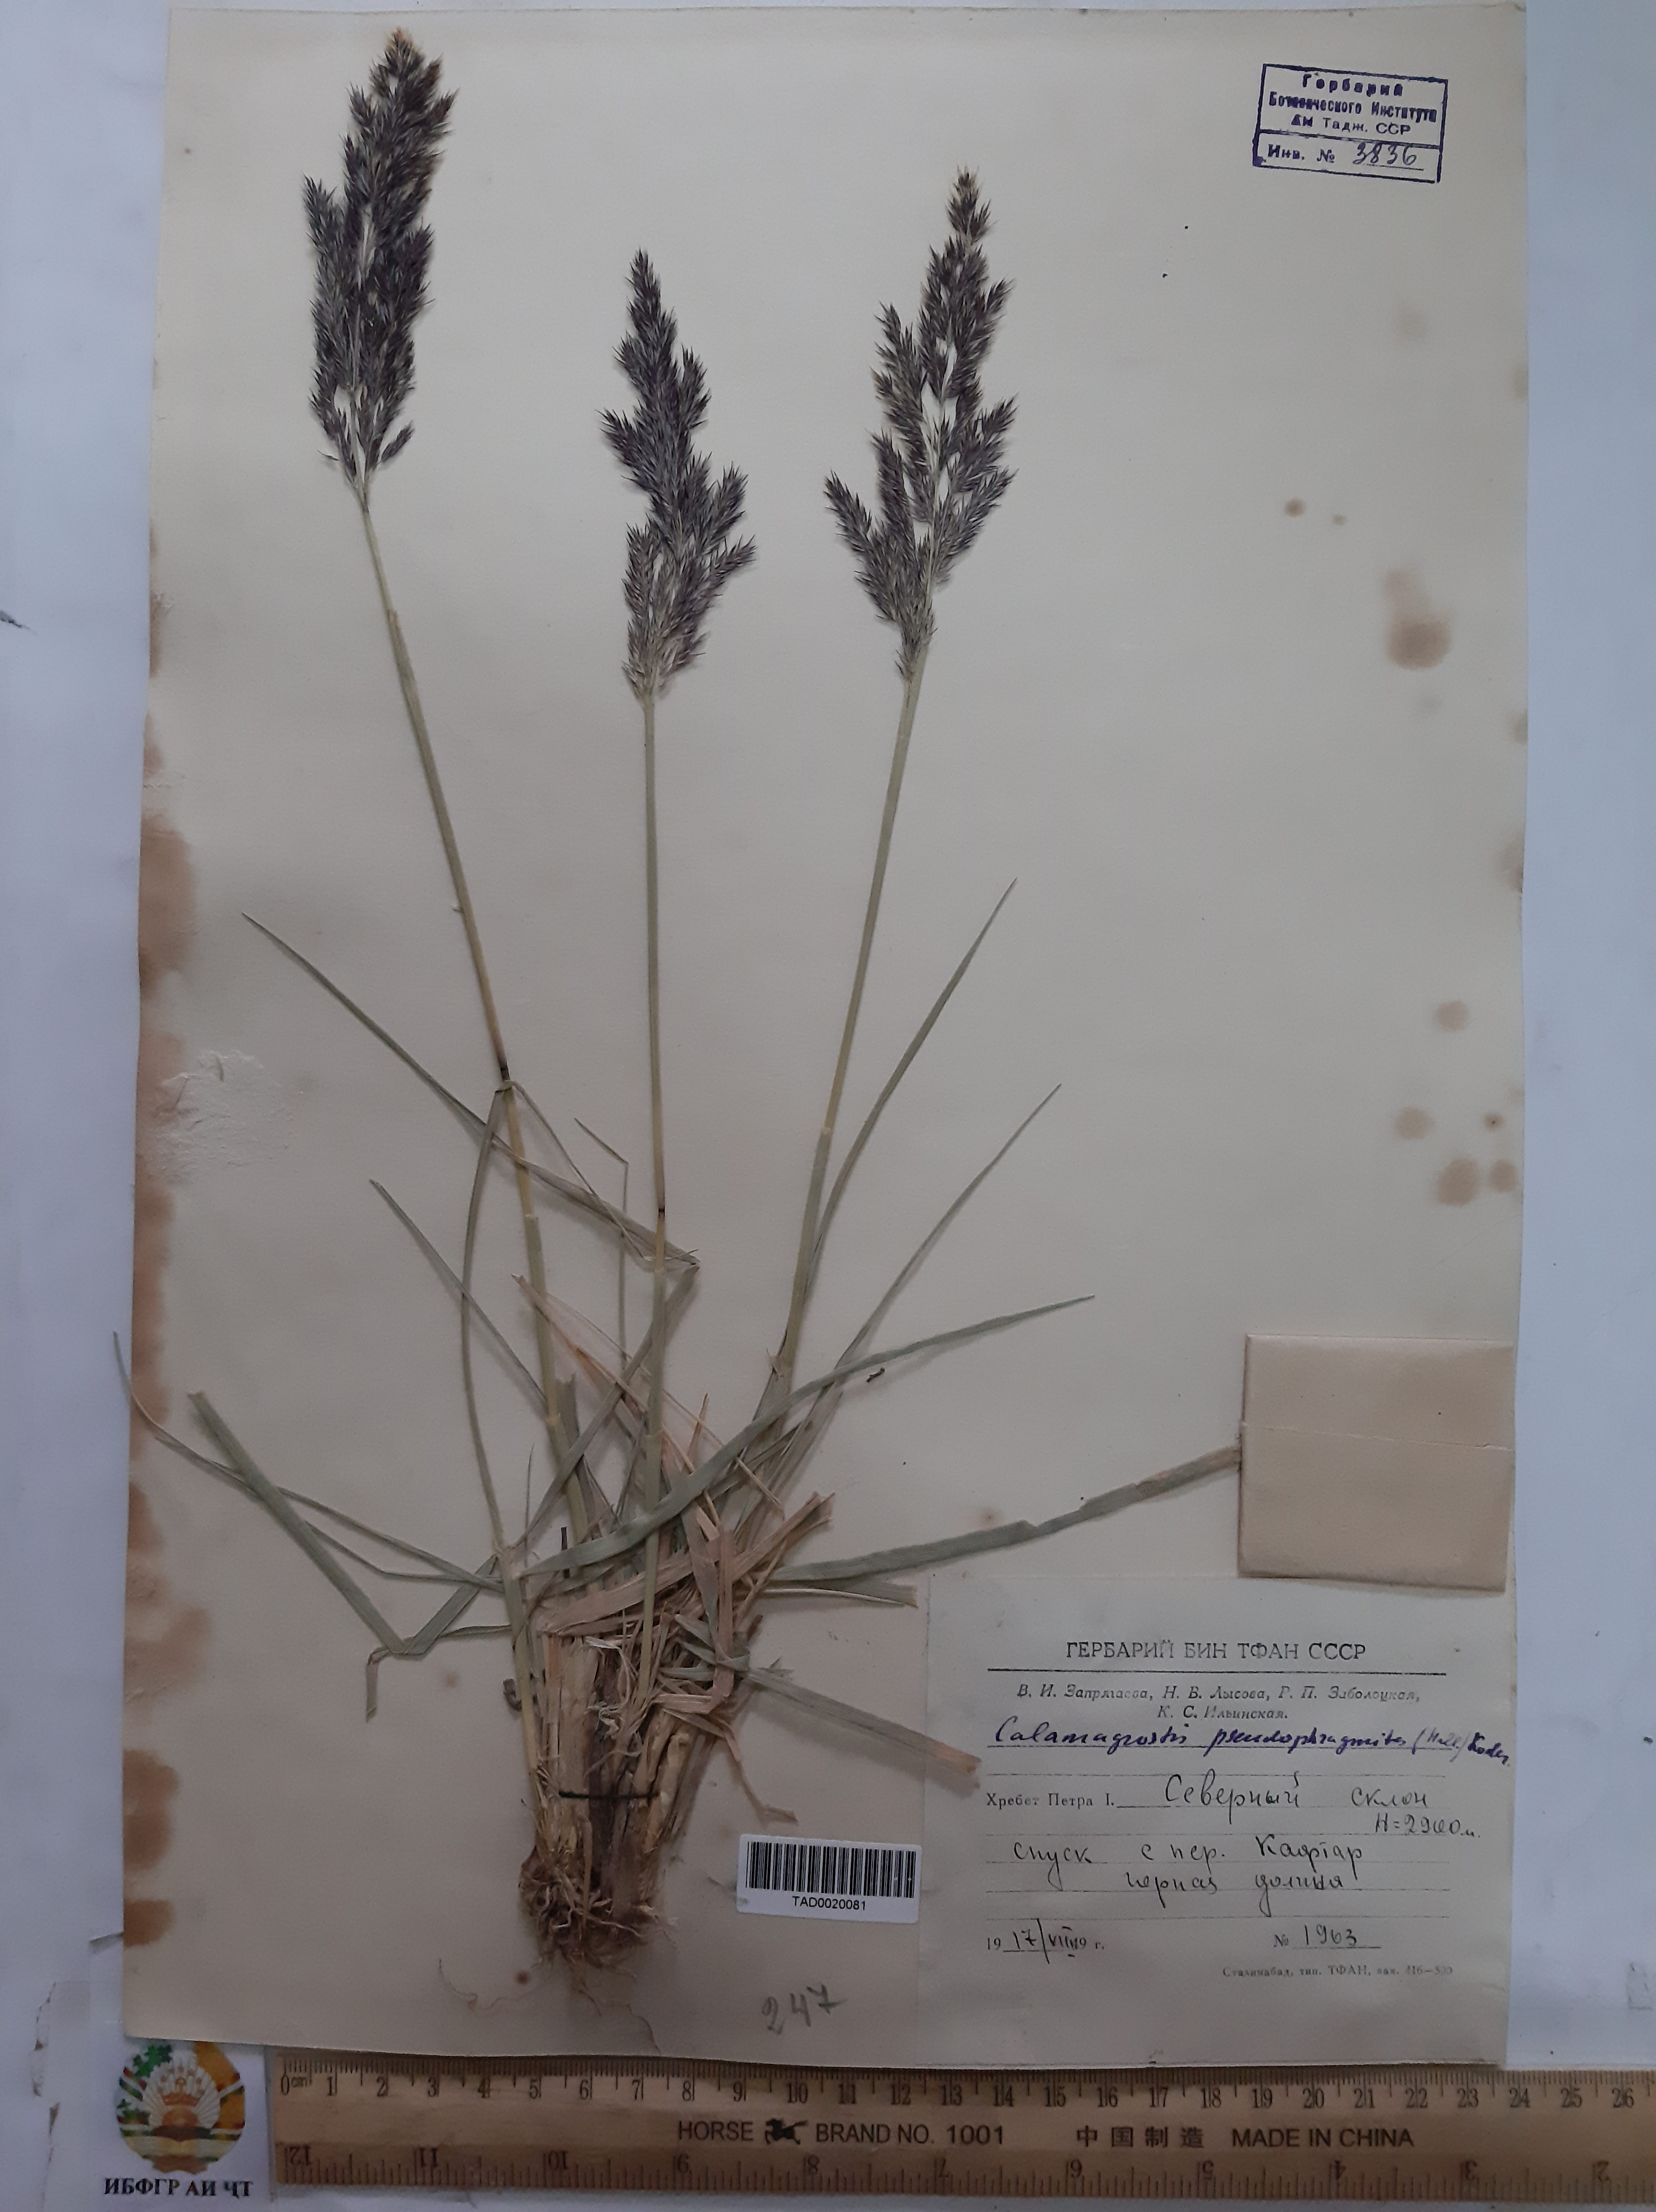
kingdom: Plantae
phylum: Tracheophyta
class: Liliopsida
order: Poales
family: Poaceae
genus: Calamagrostis
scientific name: Calamagrostis pseudophragmites
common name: Coastal small-reed
